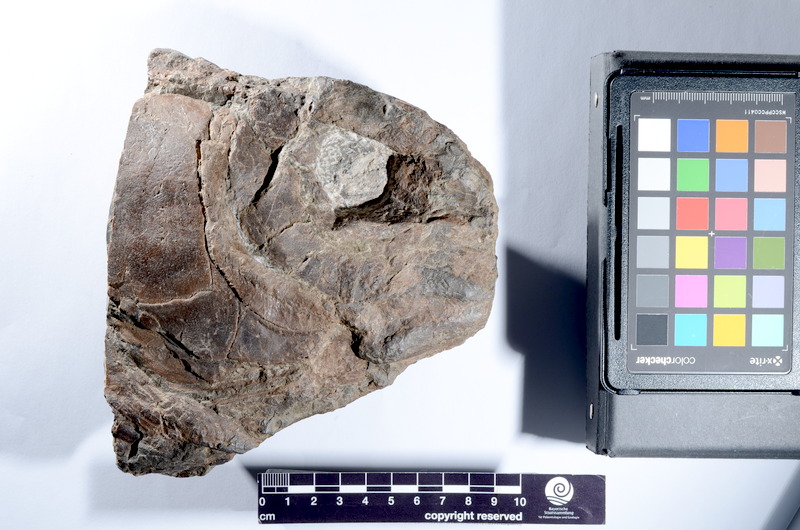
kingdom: Animalia
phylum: Chordata
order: Lepisosteiformes
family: Lepidotidae
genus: Lepidotes
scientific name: Lepidotes
